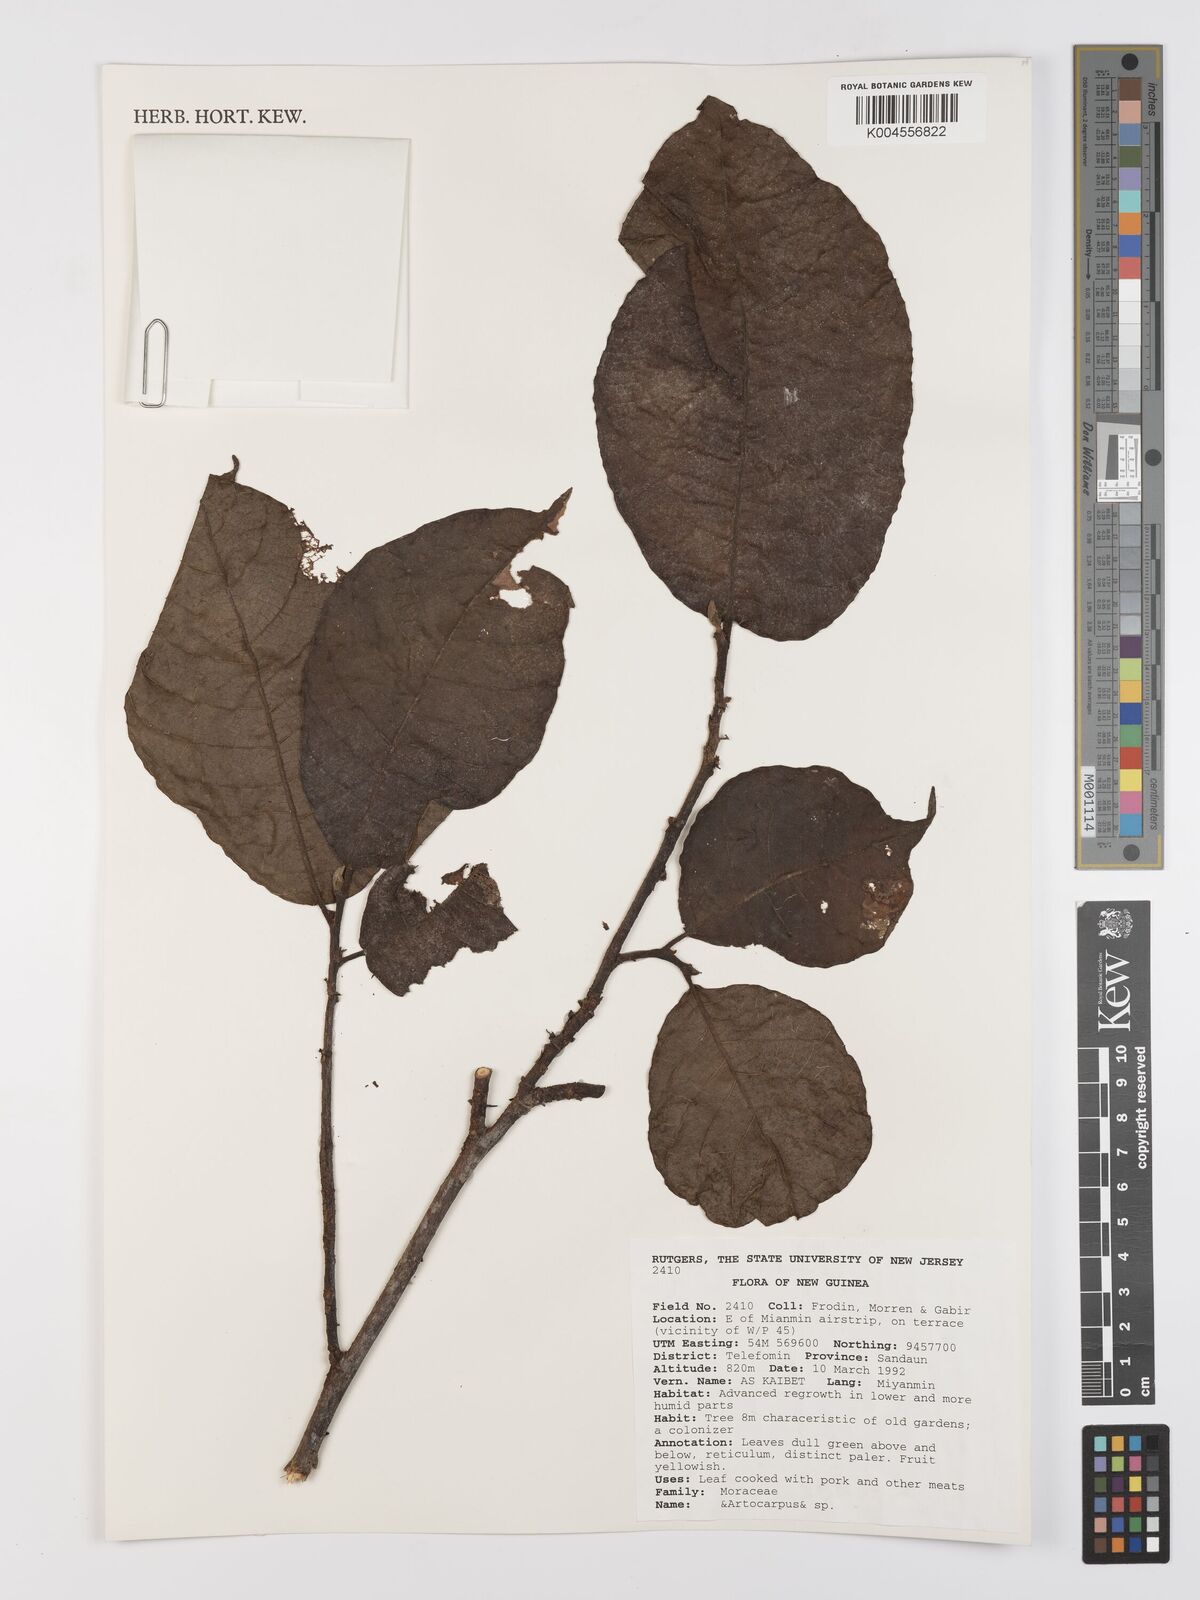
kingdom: Plantae
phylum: Tracheophyta
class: Magnoliopsida
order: Rosales
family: Moraceae
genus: Artocarpus
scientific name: Artocarpus
